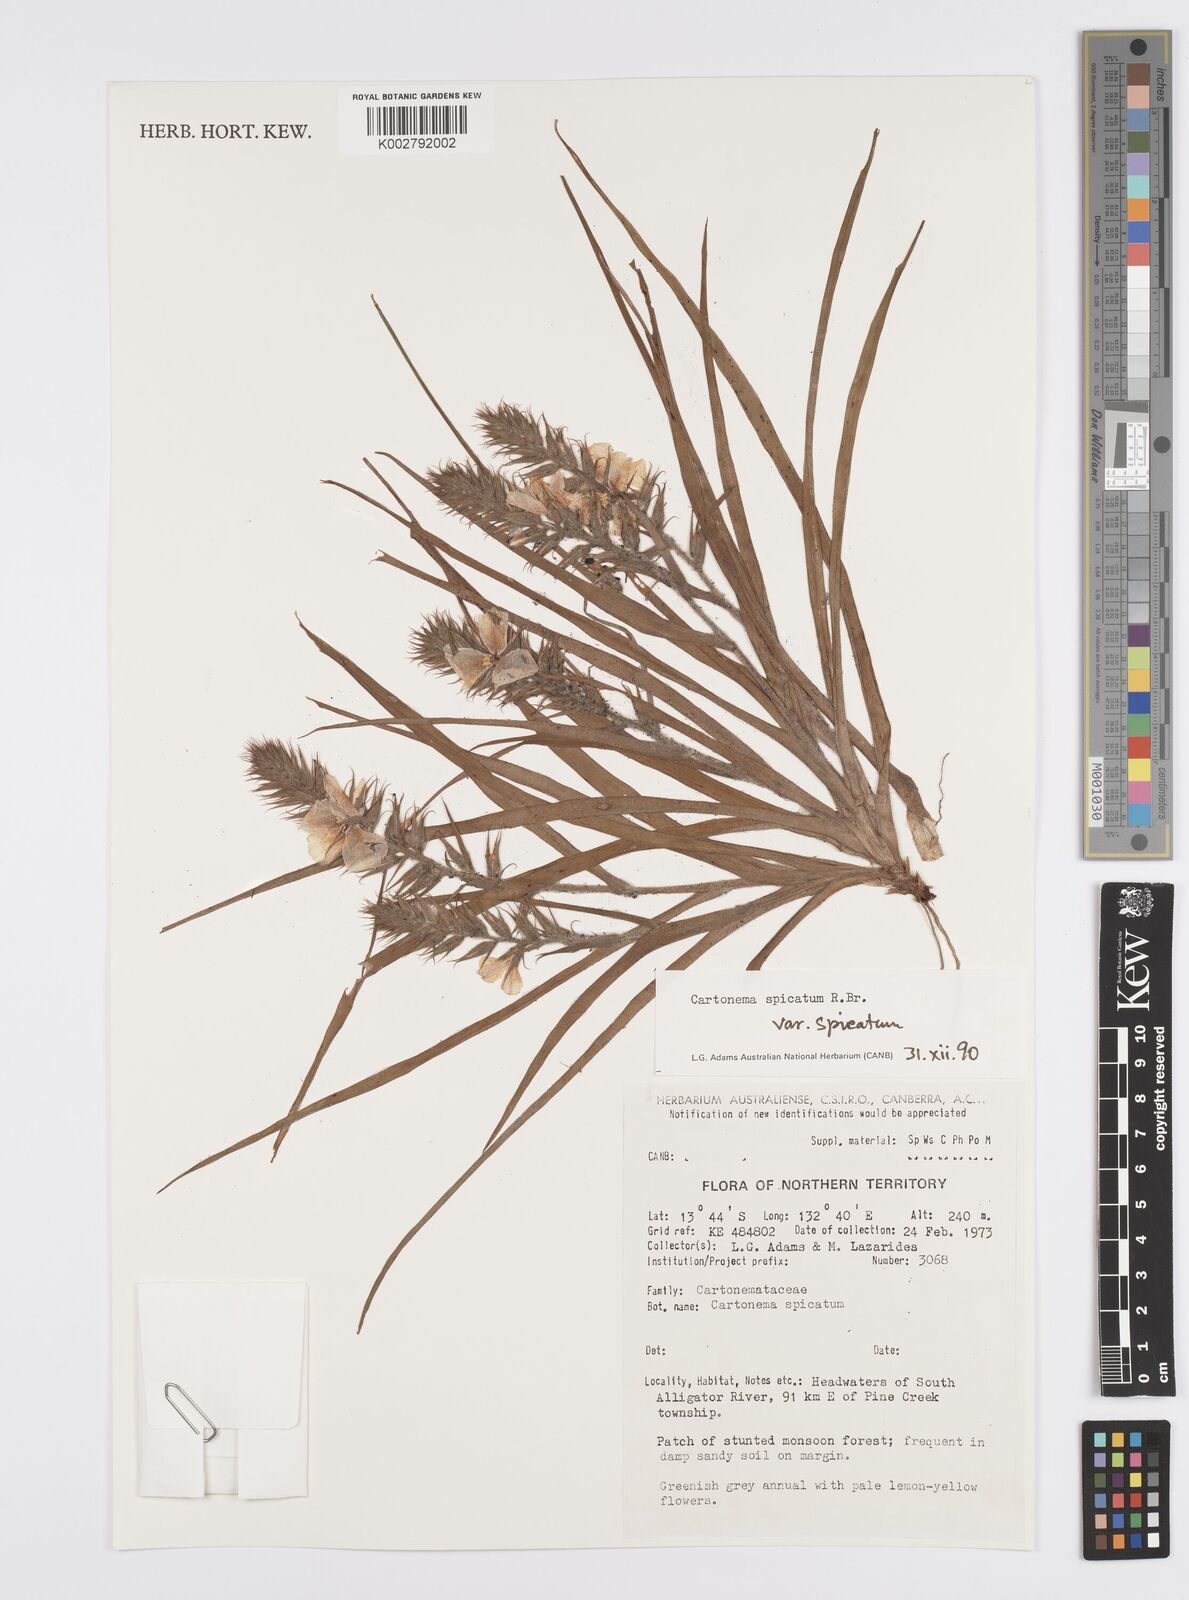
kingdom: Plantae
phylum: Tracheophyta
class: Liliopsida
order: Commelinales
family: Commelinaceae
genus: Cartonema
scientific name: Cartonema spicatum
